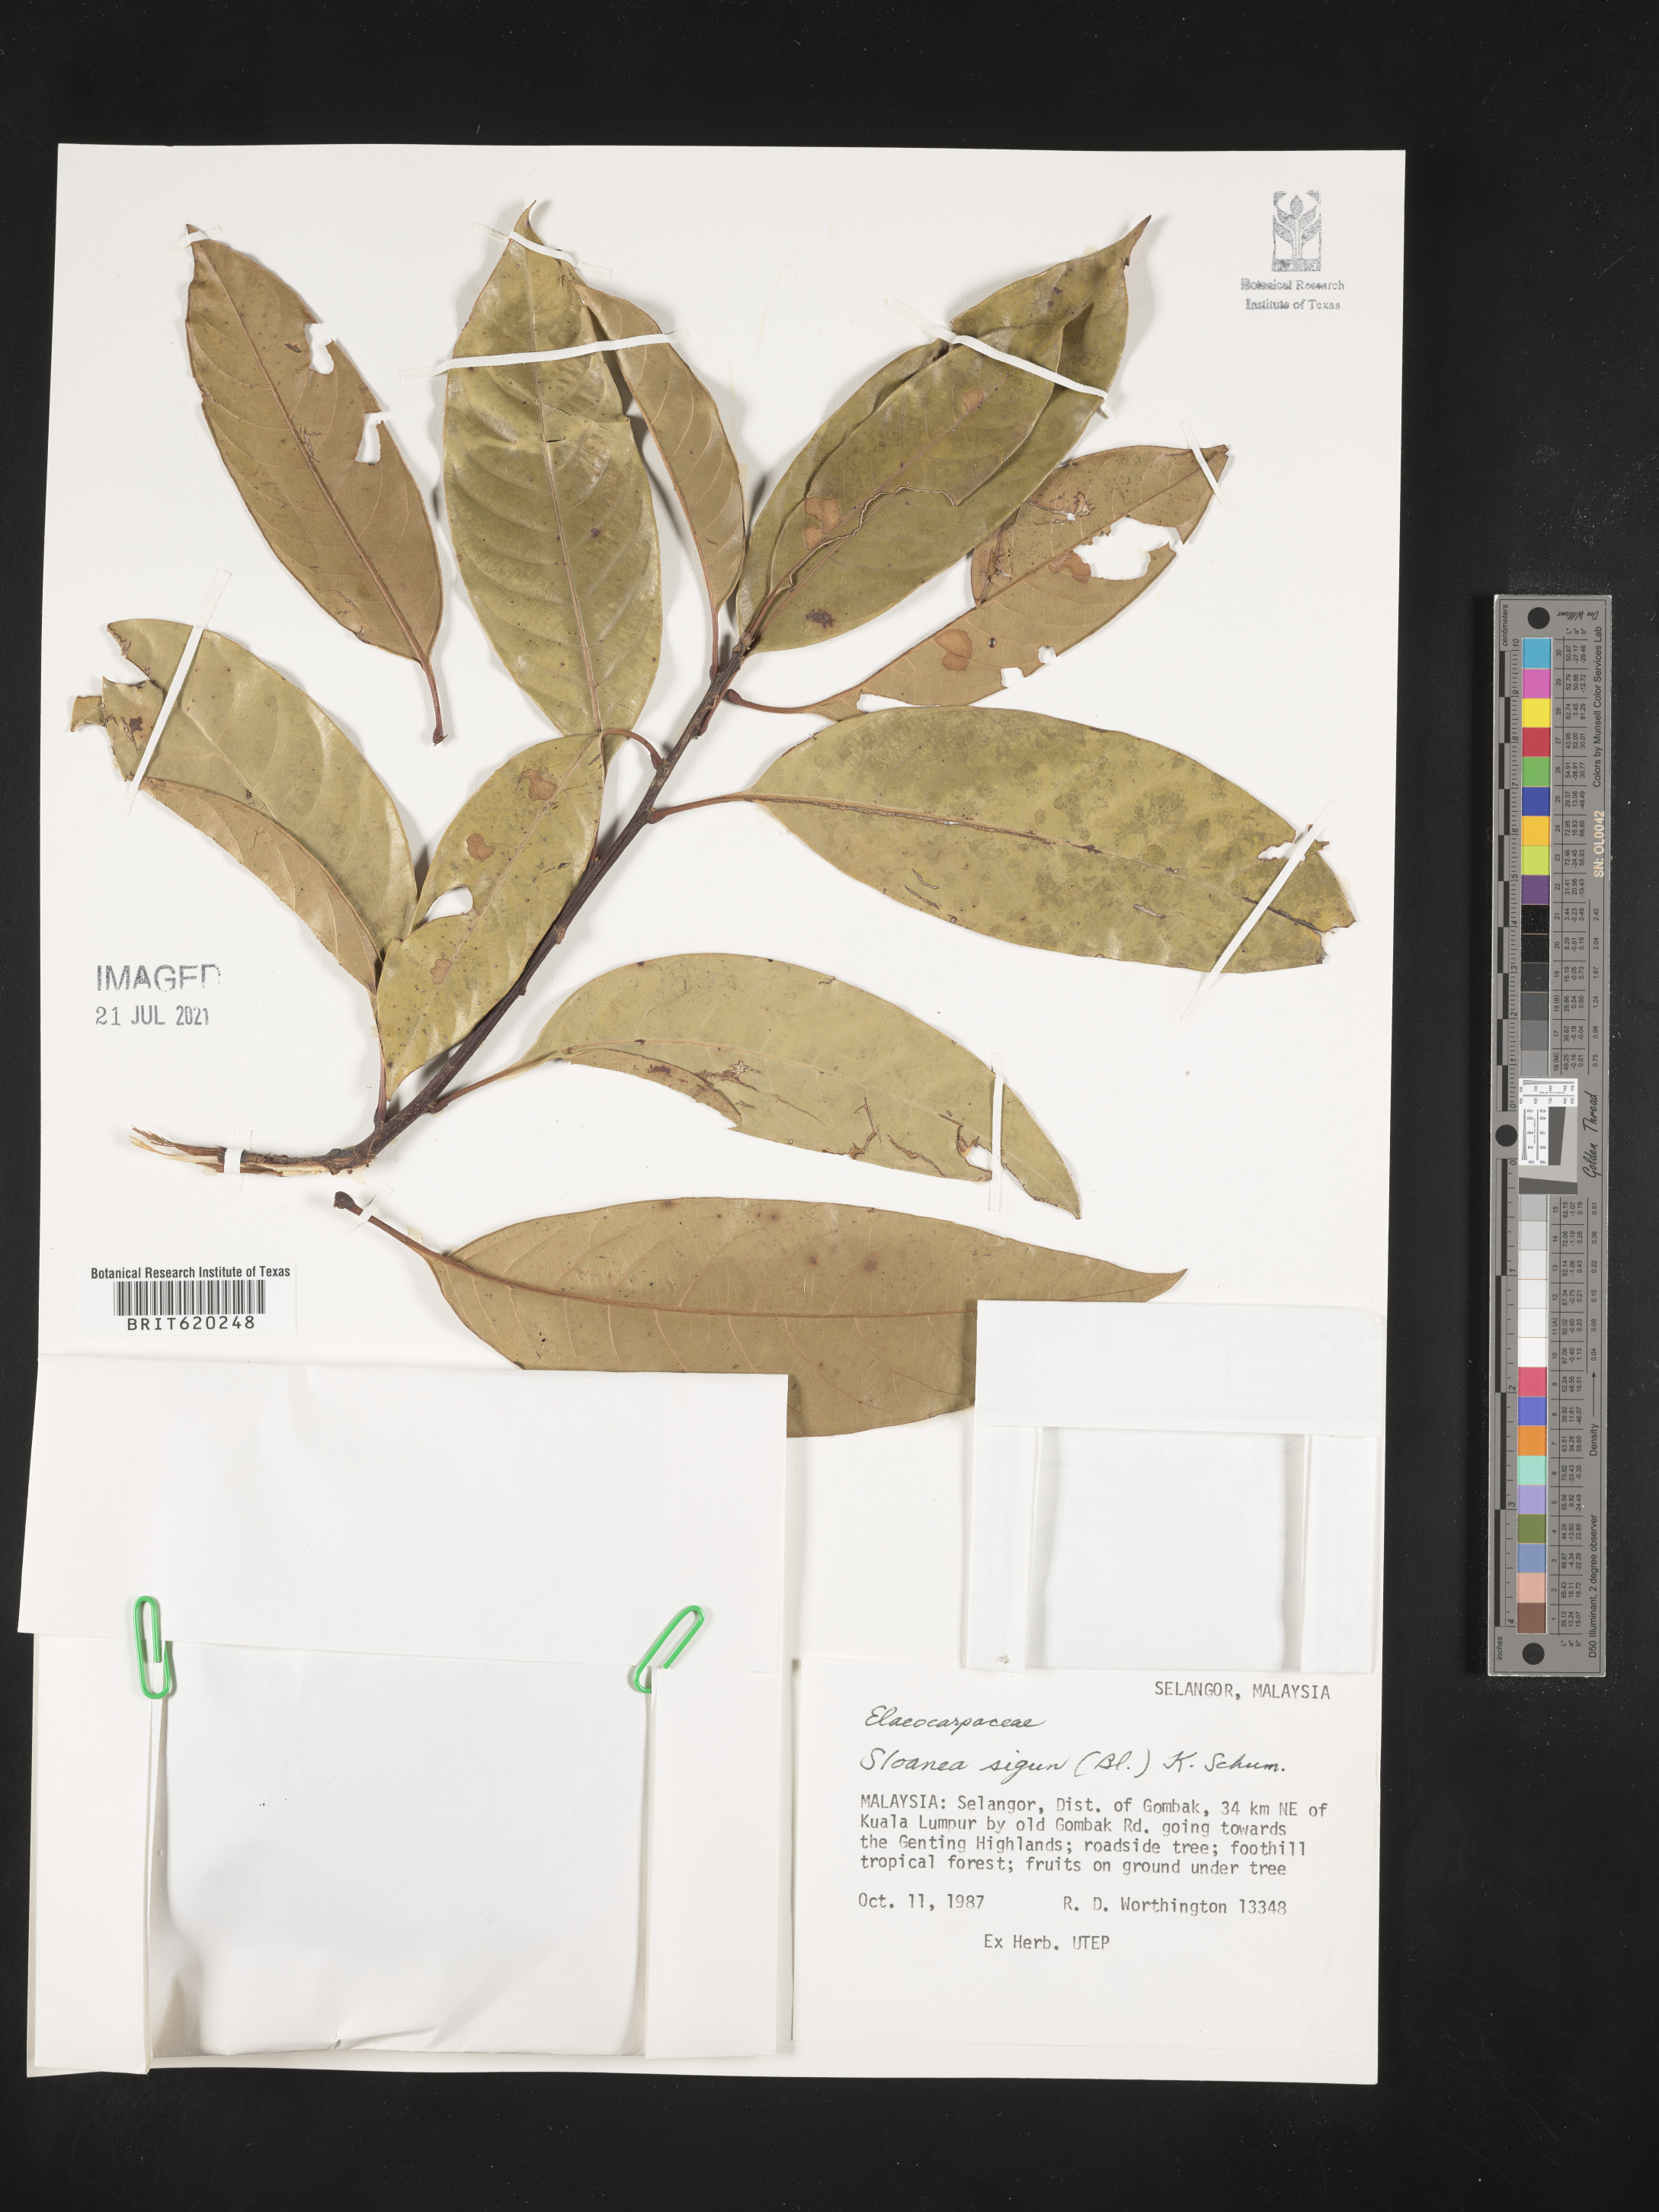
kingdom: Plantae
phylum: Tracheophyta
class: Magnoliopsida
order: Oxalidales
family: Elaeocarpaceae
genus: Sloanea
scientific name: Sloanea sigun
